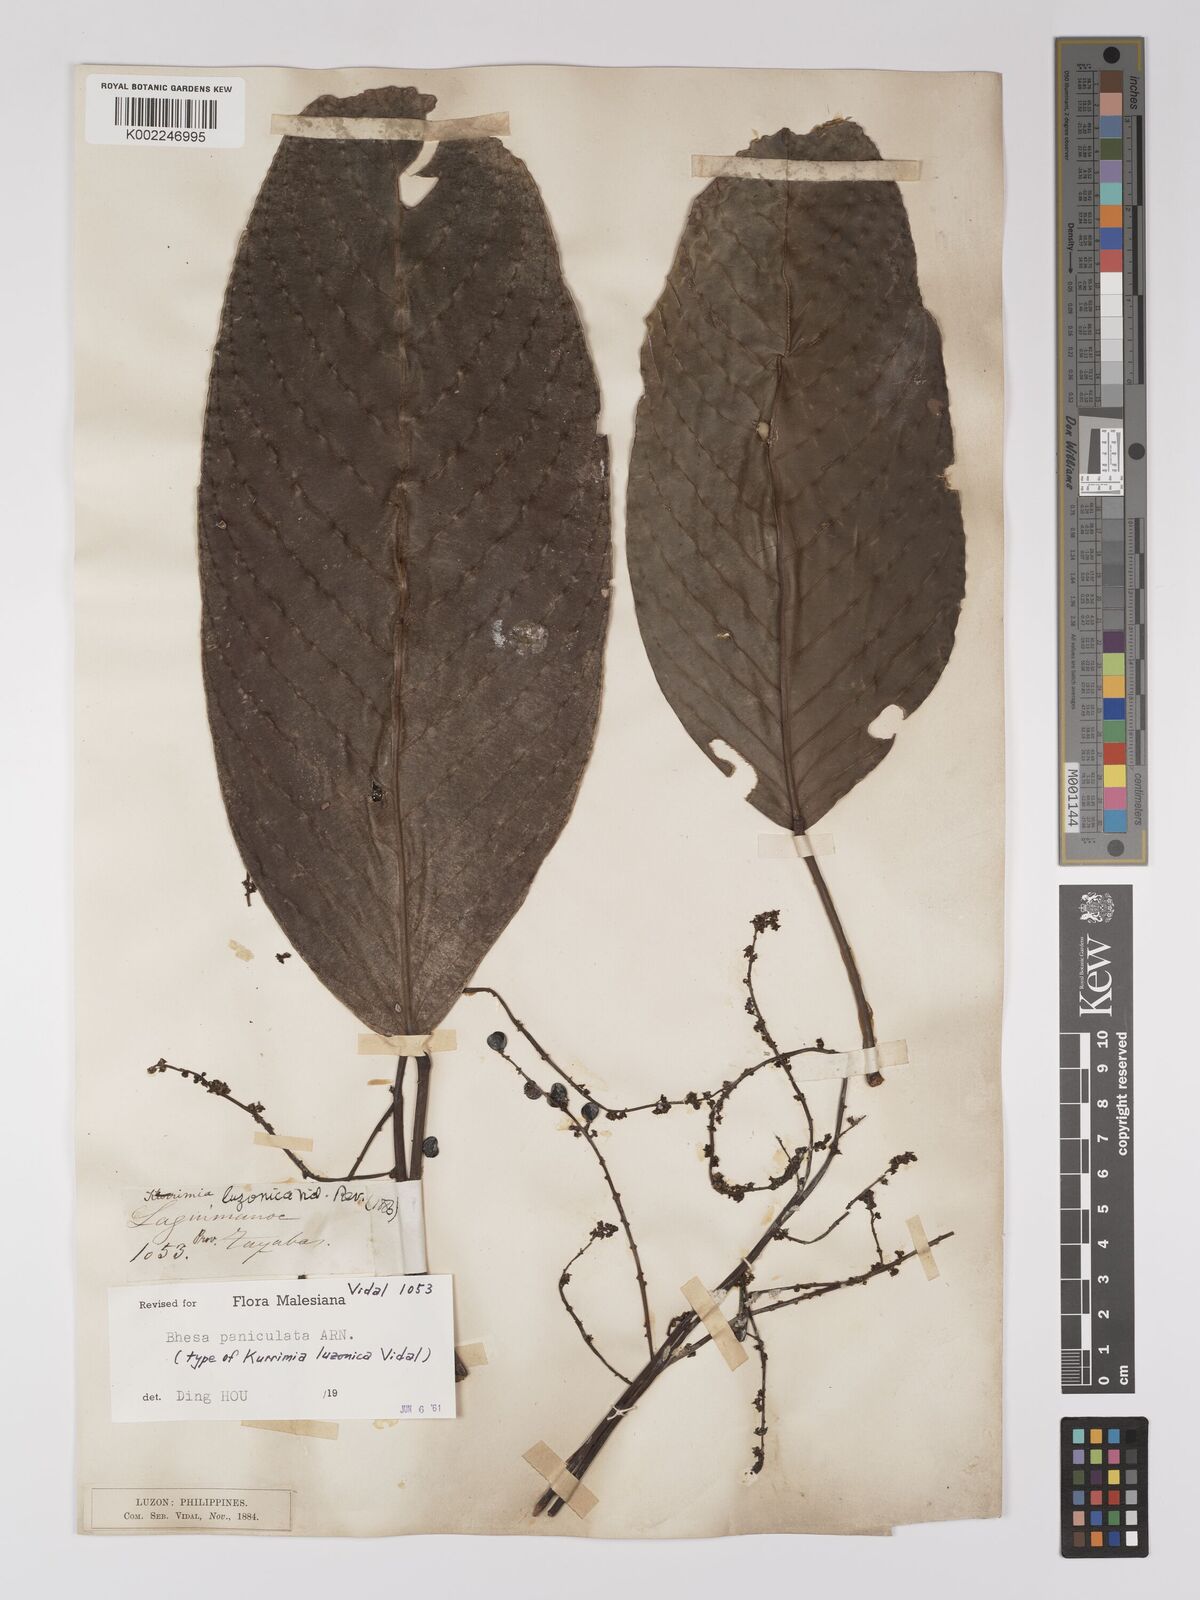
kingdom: Plantae
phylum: Tracheophyta
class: Magnoliopsida
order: Malpighiales
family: Centroplacaceae
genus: Bhesa
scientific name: Bhesa paniculata
